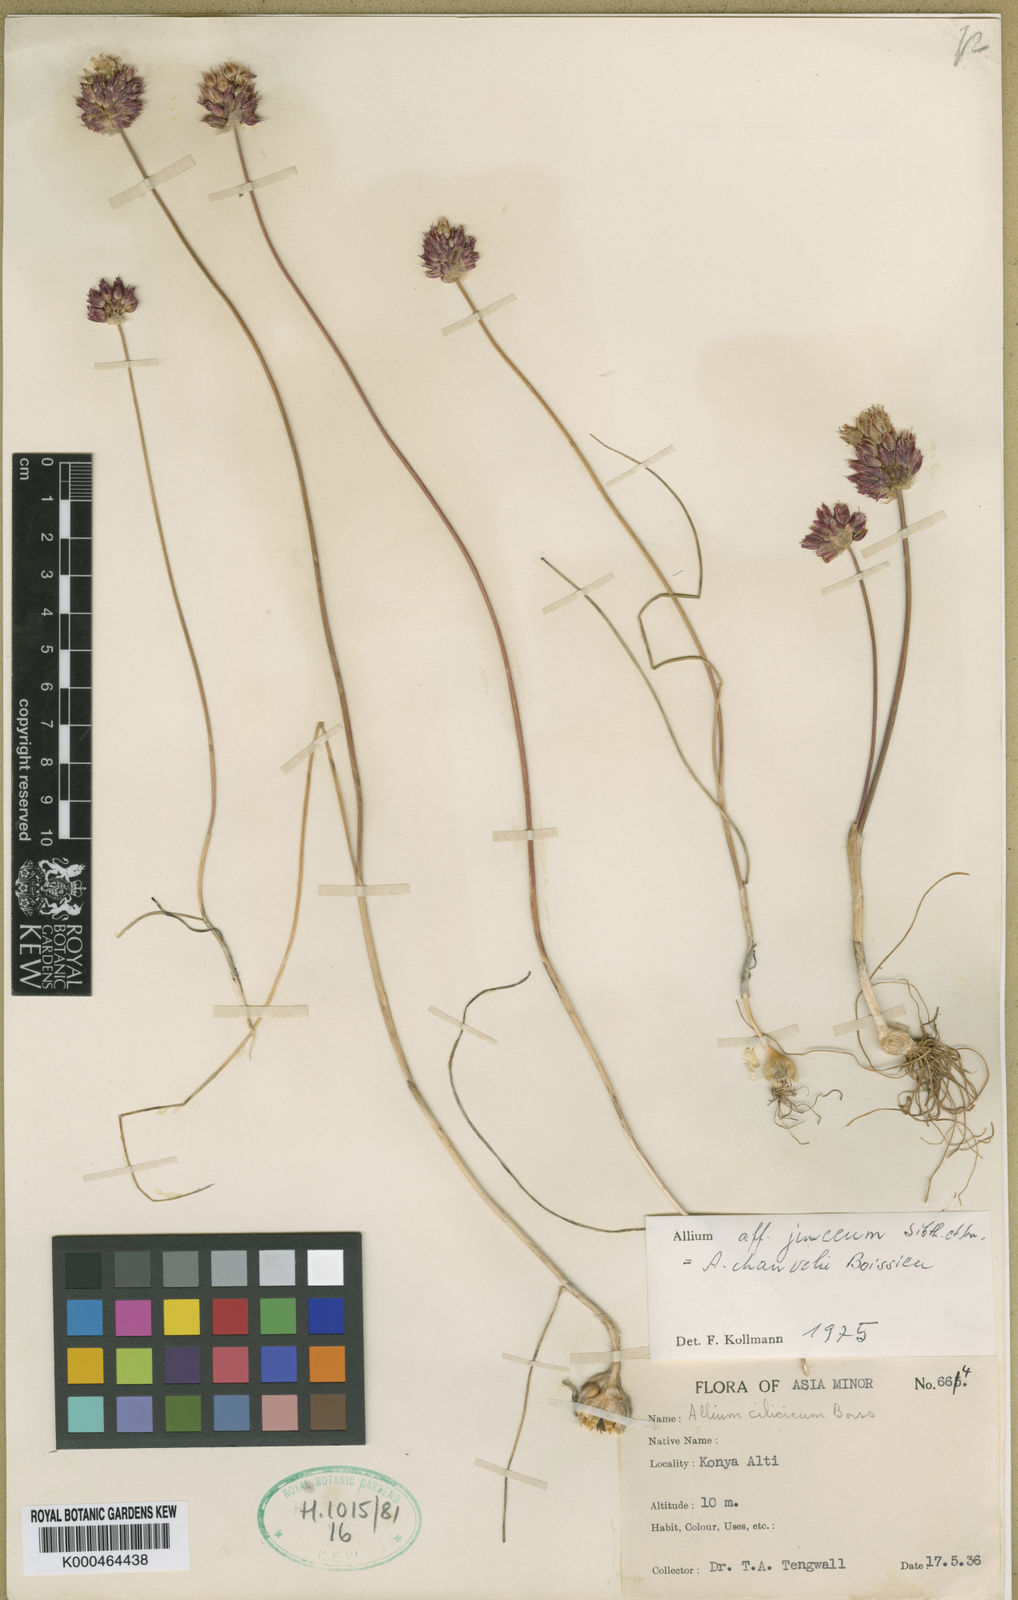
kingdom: Plantae
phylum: Tracheophyta
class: Liliopsida
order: Asparagales
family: Amaryllidaceae
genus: Allium
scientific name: Allium junceum
